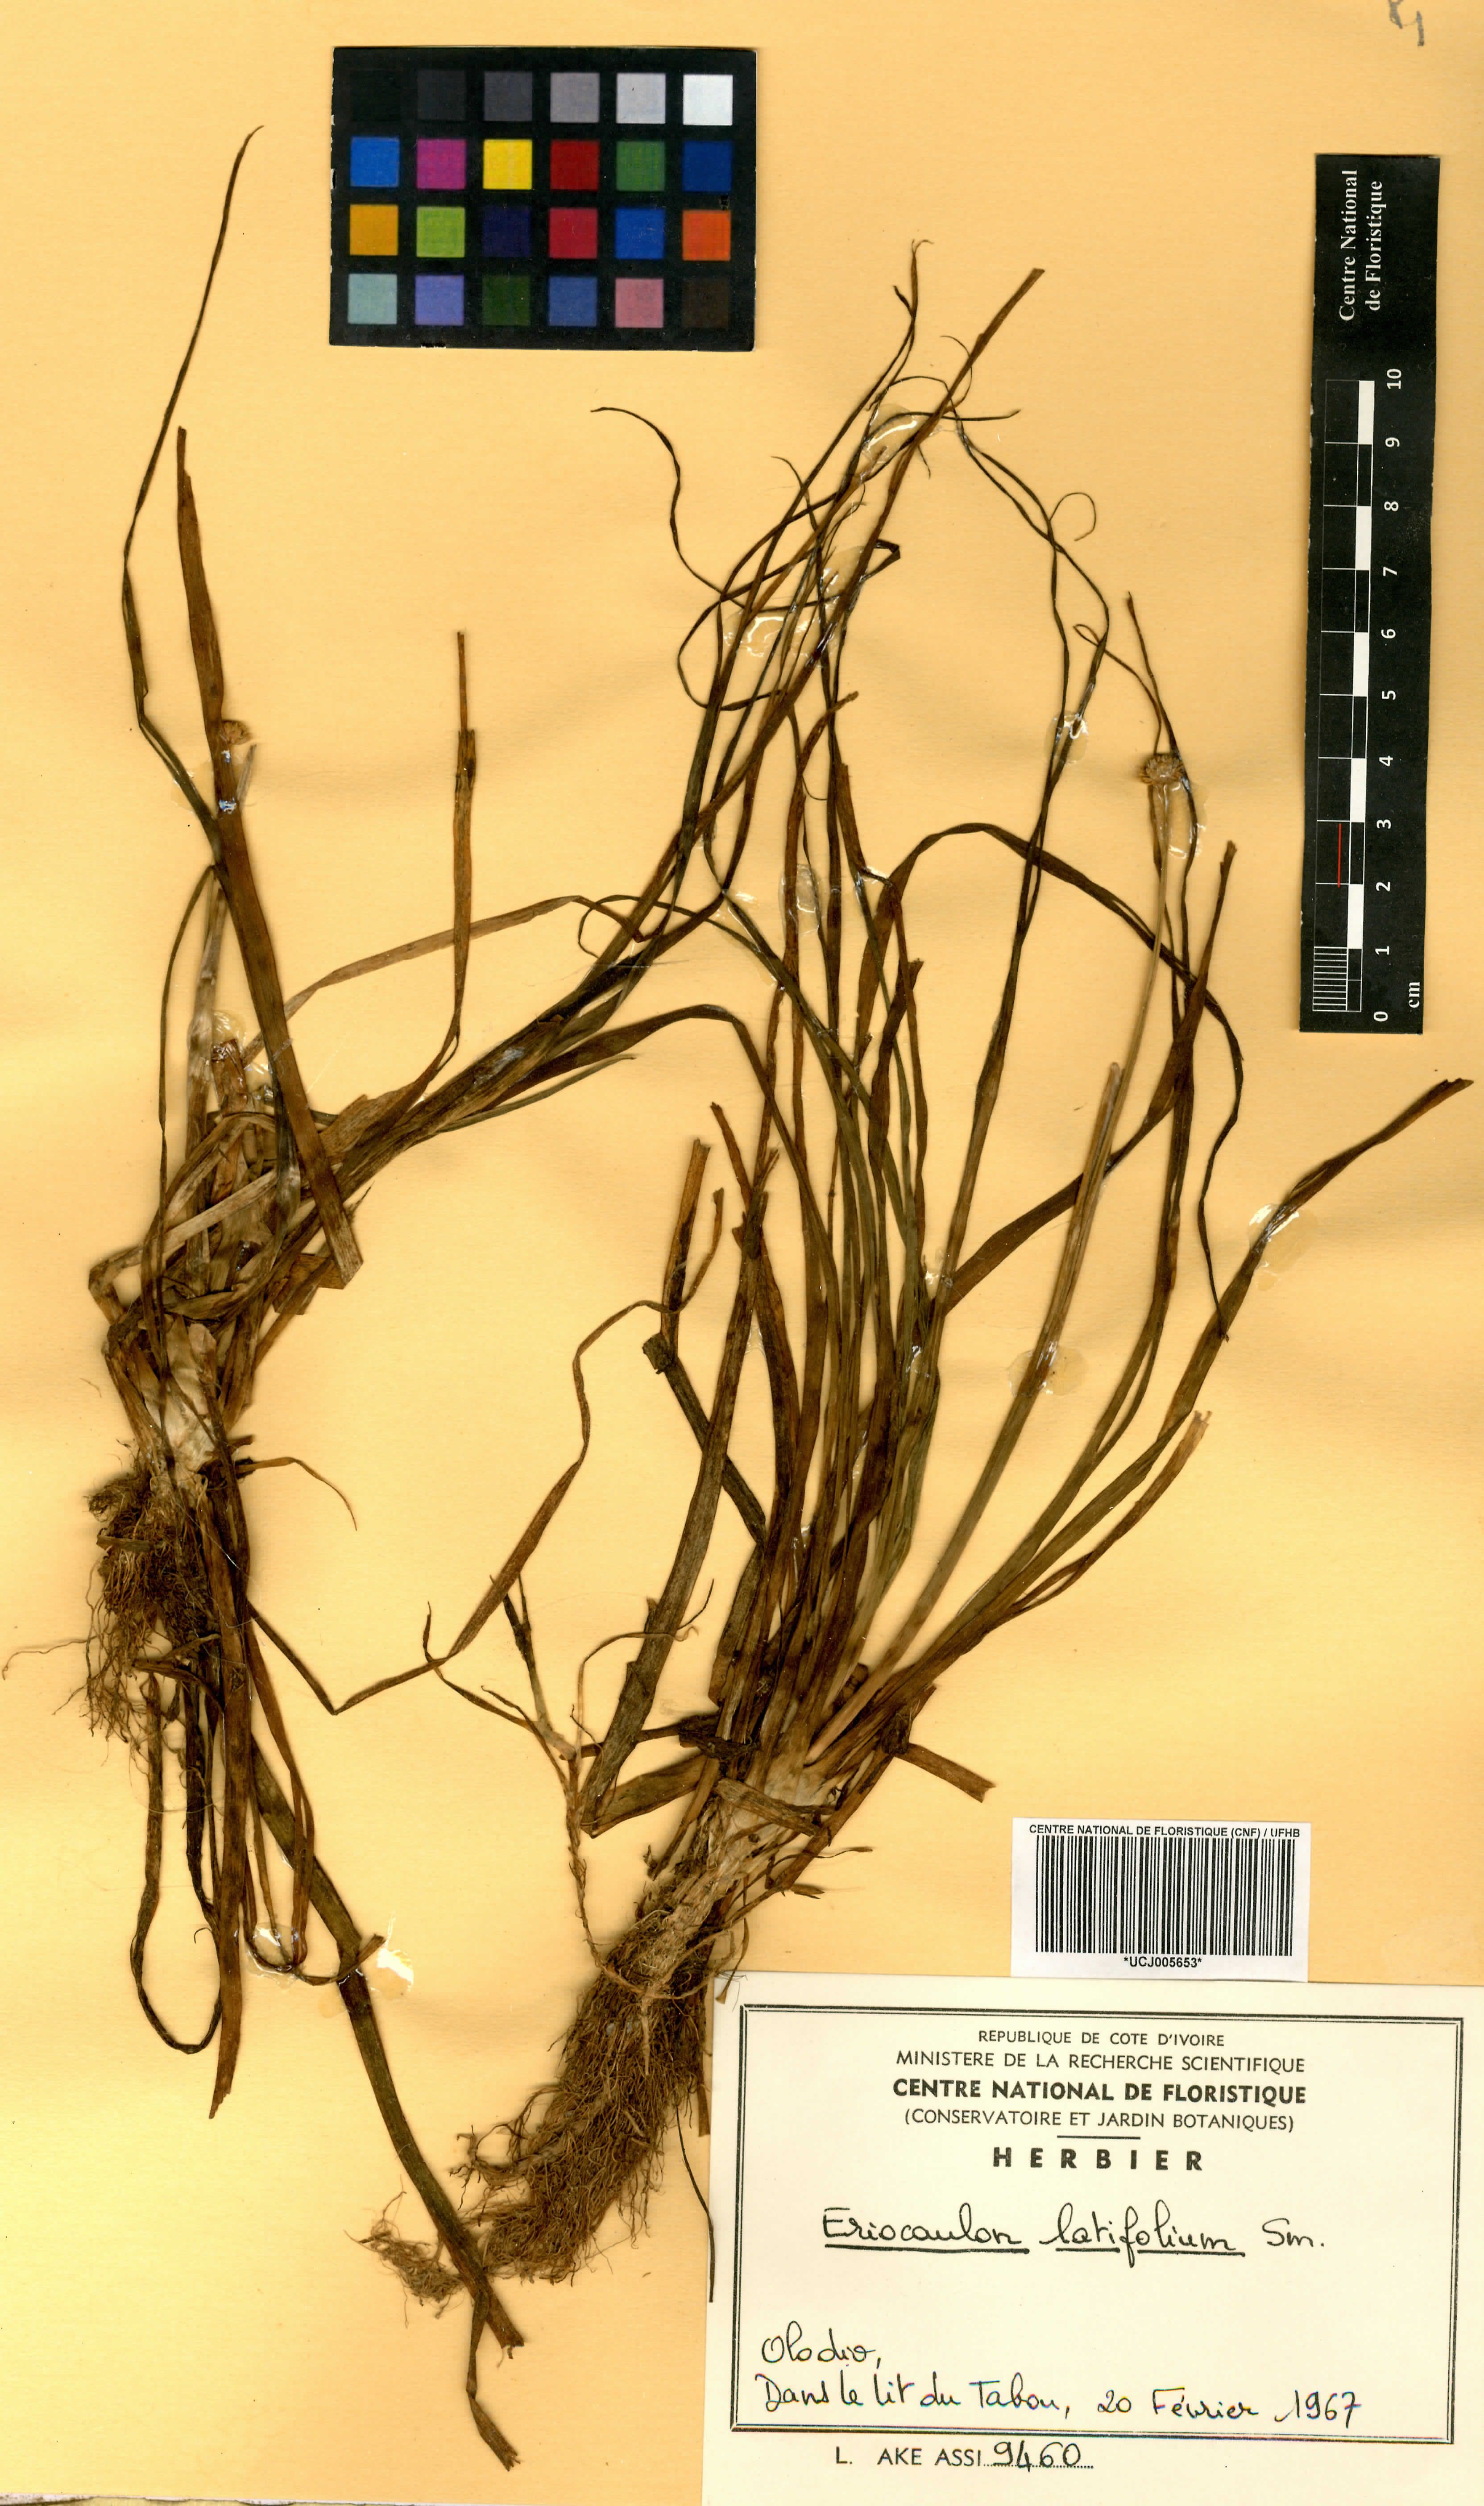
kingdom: Plantae
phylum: Tracheophyta
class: Liliopsida
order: Poales
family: Eriocaulaceae
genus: Eriocaulon
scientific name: Eriocaulon latifolium
